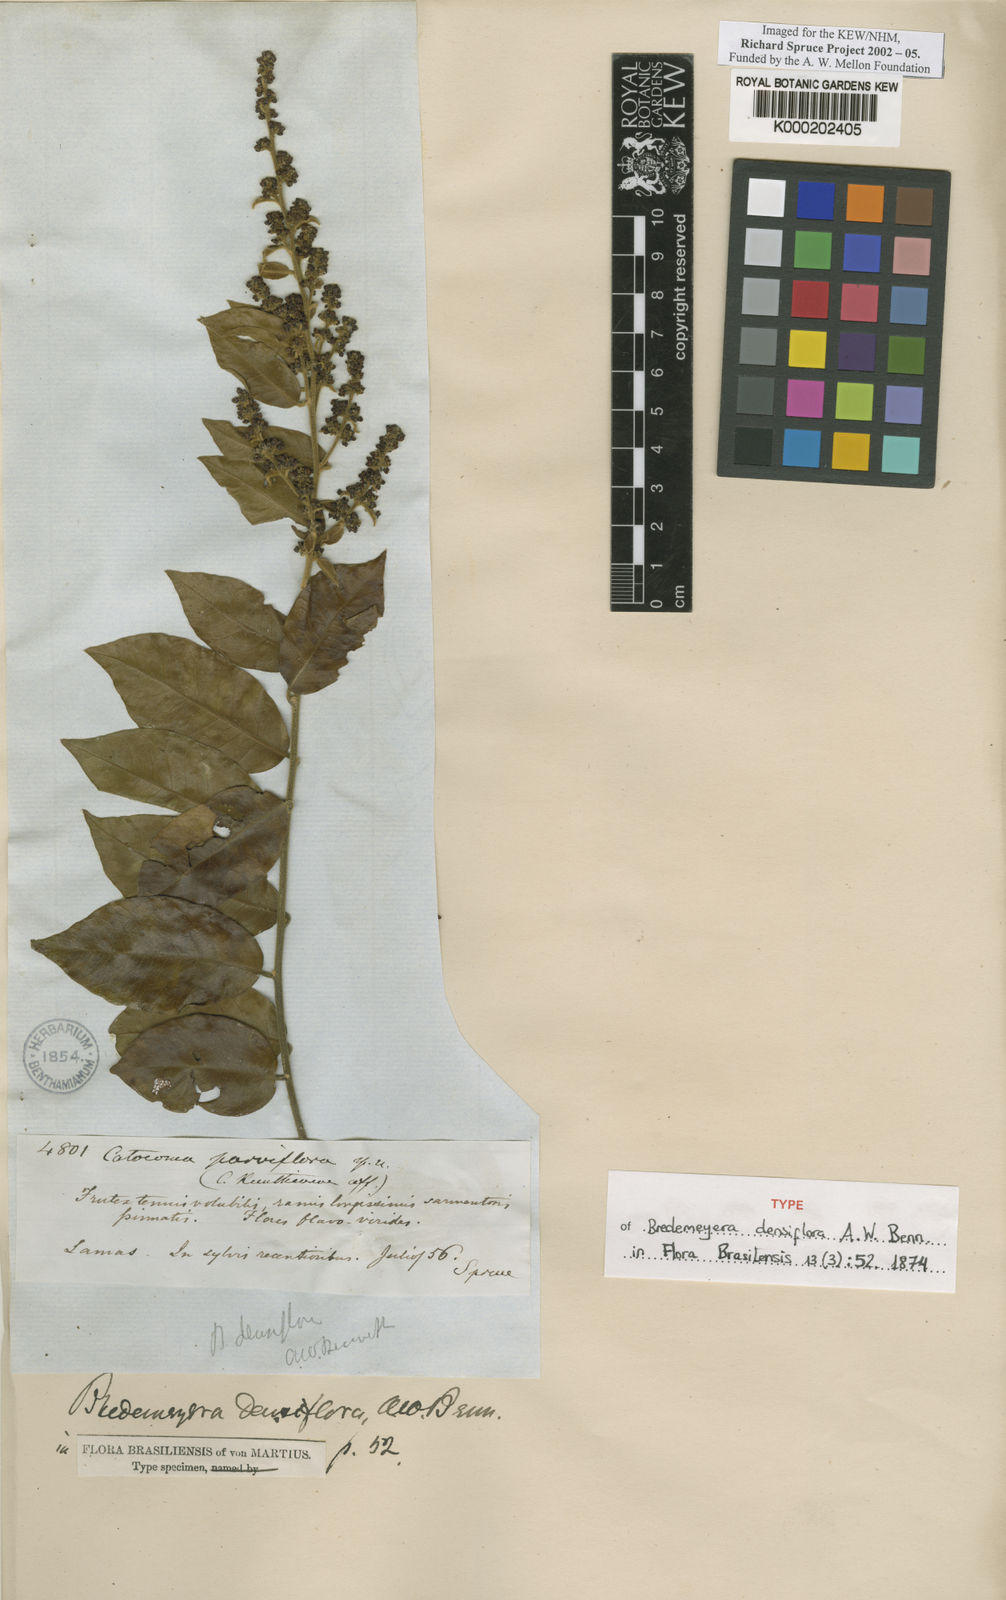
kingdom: Plantae
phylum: Tracheophyta
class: Magnoliopsida
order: Fabales
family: Polygalaceae
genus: Bredemeyera
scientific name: Bredemeyera densiflora
